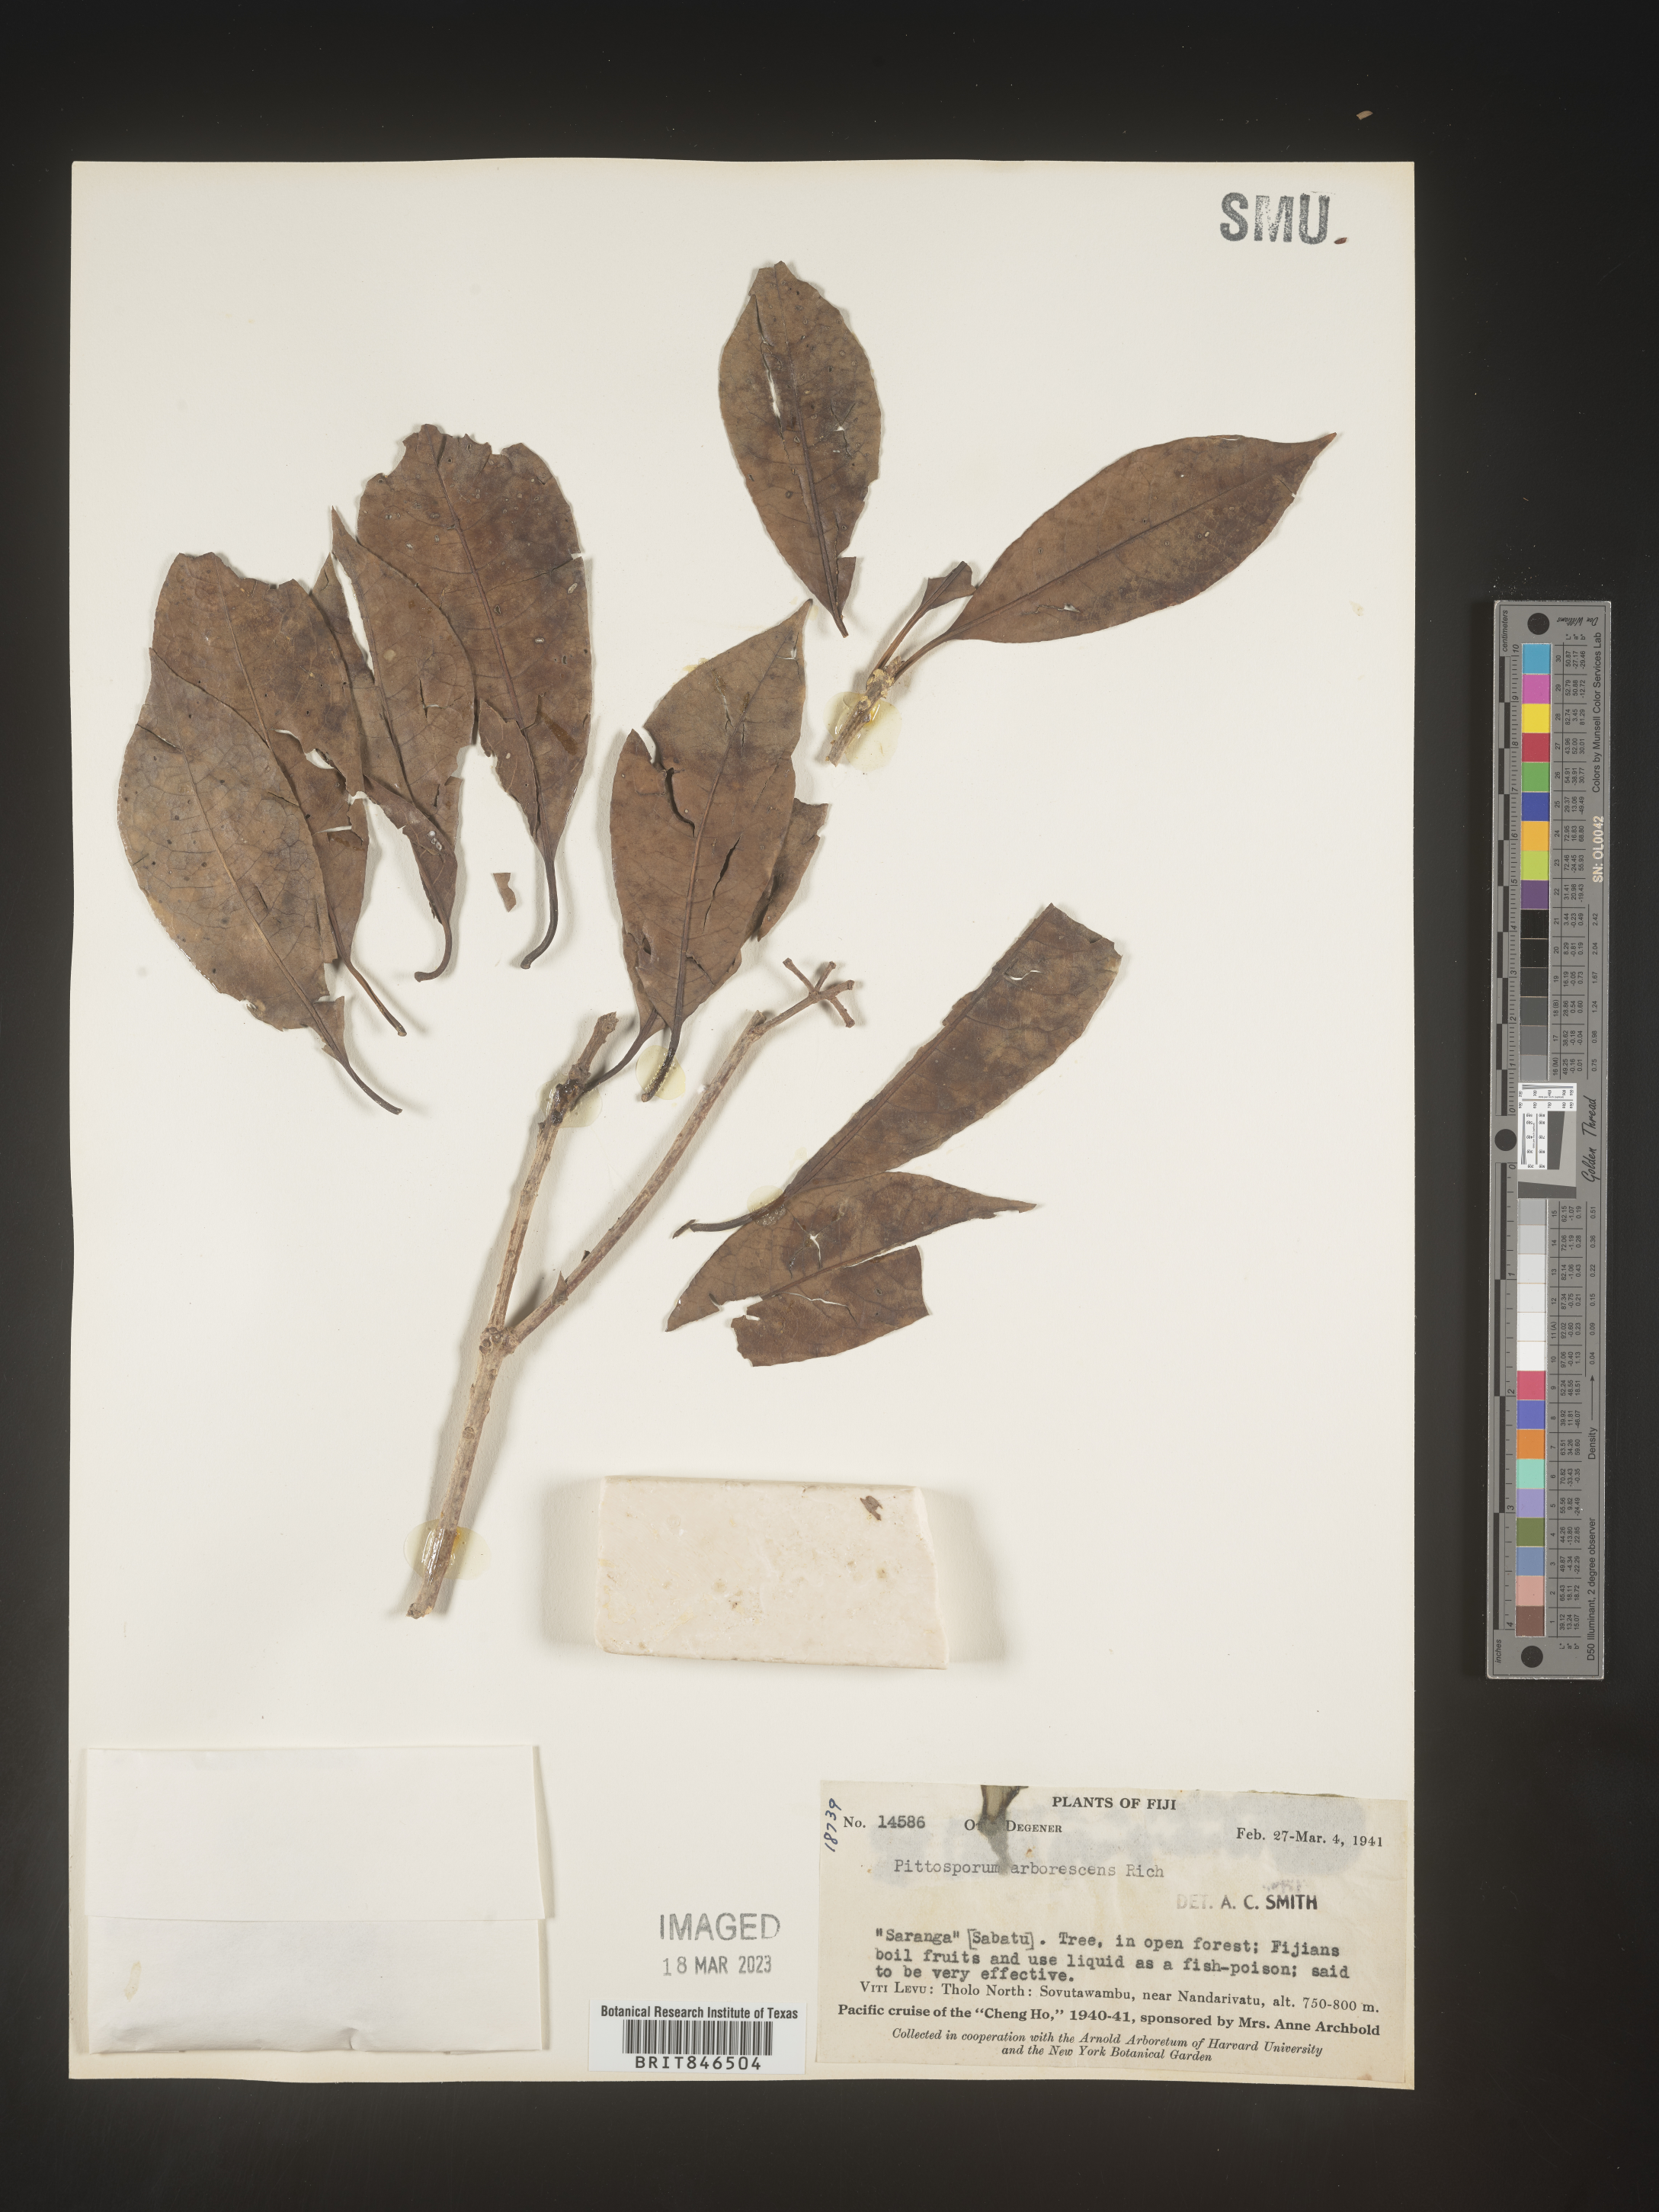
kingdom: Plantae
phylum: Tracheophyta
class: Magnoliopsida
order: Apiales
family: Pittosporaceae
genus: Pittosporum
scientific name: Pittosporum
